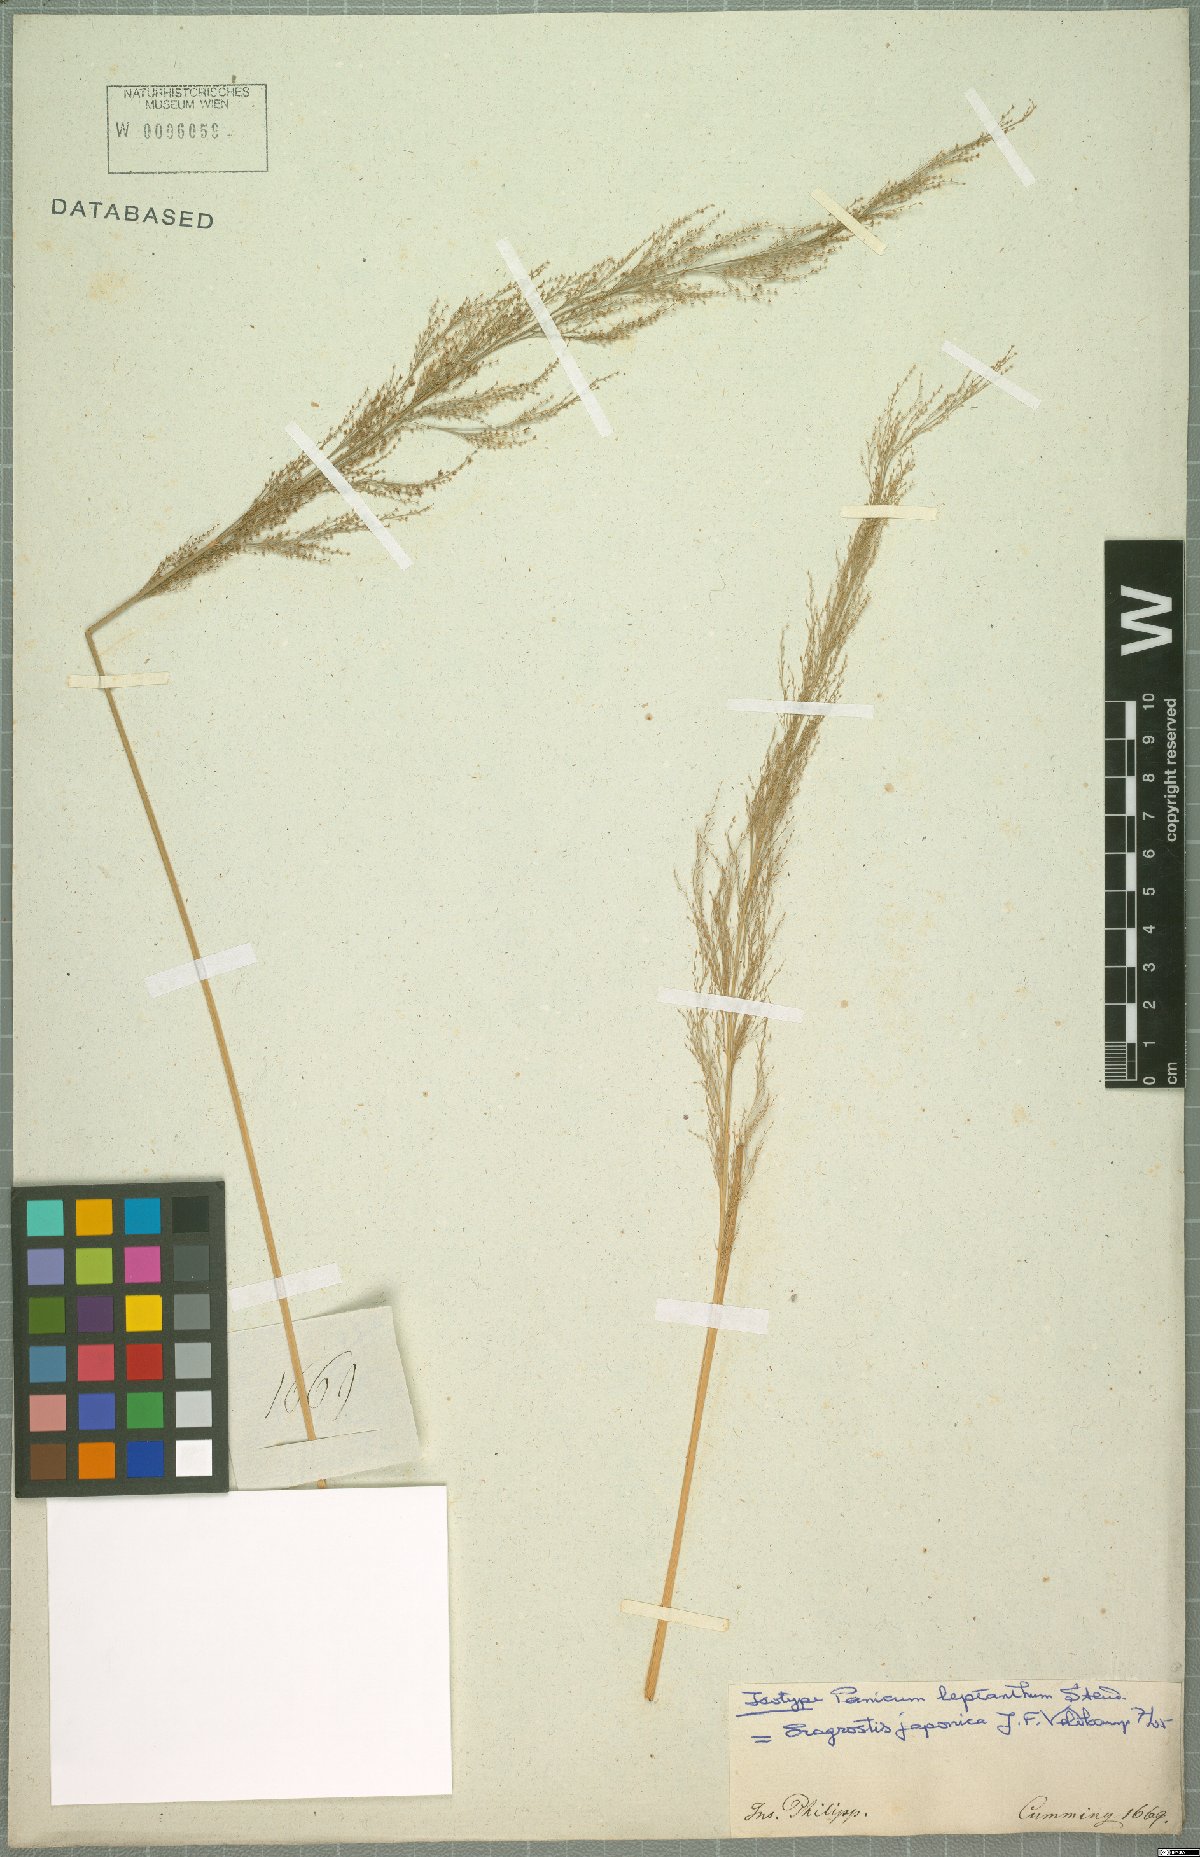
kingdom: Plantae
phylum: Tracheophyta
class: Liliopsida
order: Poales
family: Poaceae
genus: Eragrostis
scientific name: Eragrostis japonica
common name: Pond lovegrass
